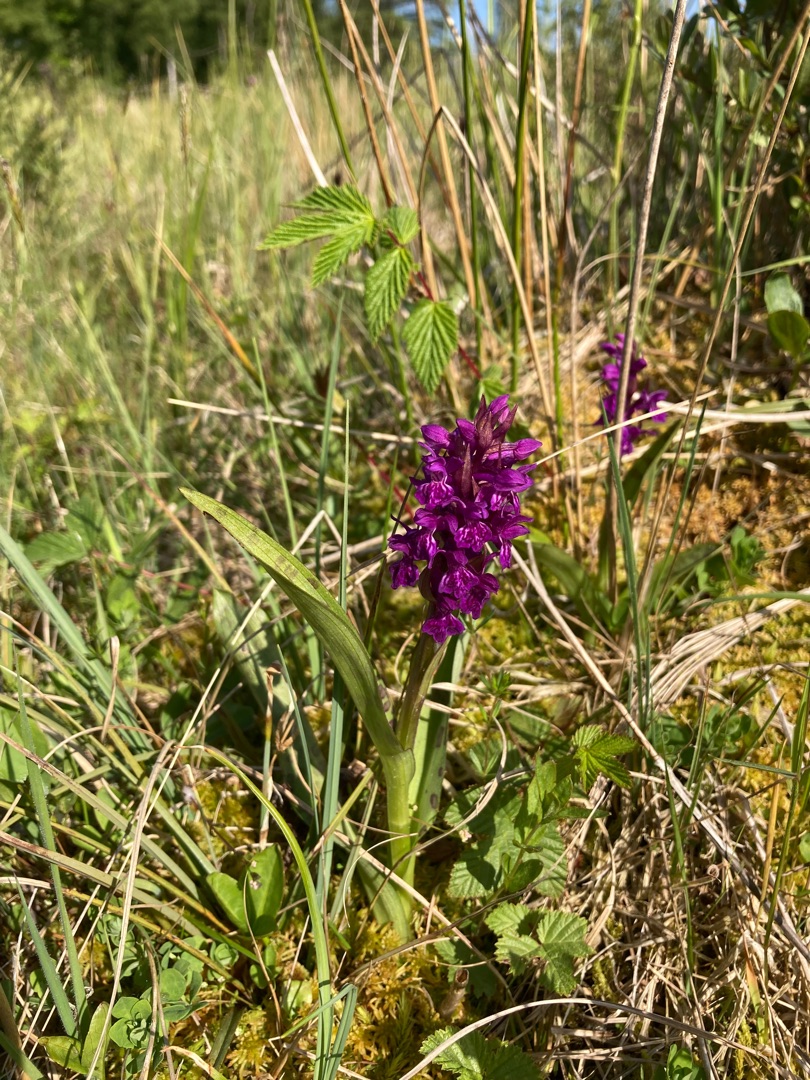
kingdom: Plantae
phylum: Tracheophyta
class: Liliopsida
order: Asparagales
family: Orchidaceae
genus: Dactylorhiza
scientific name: Dactylorhiza majalis
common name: Maj-gøgeurt
